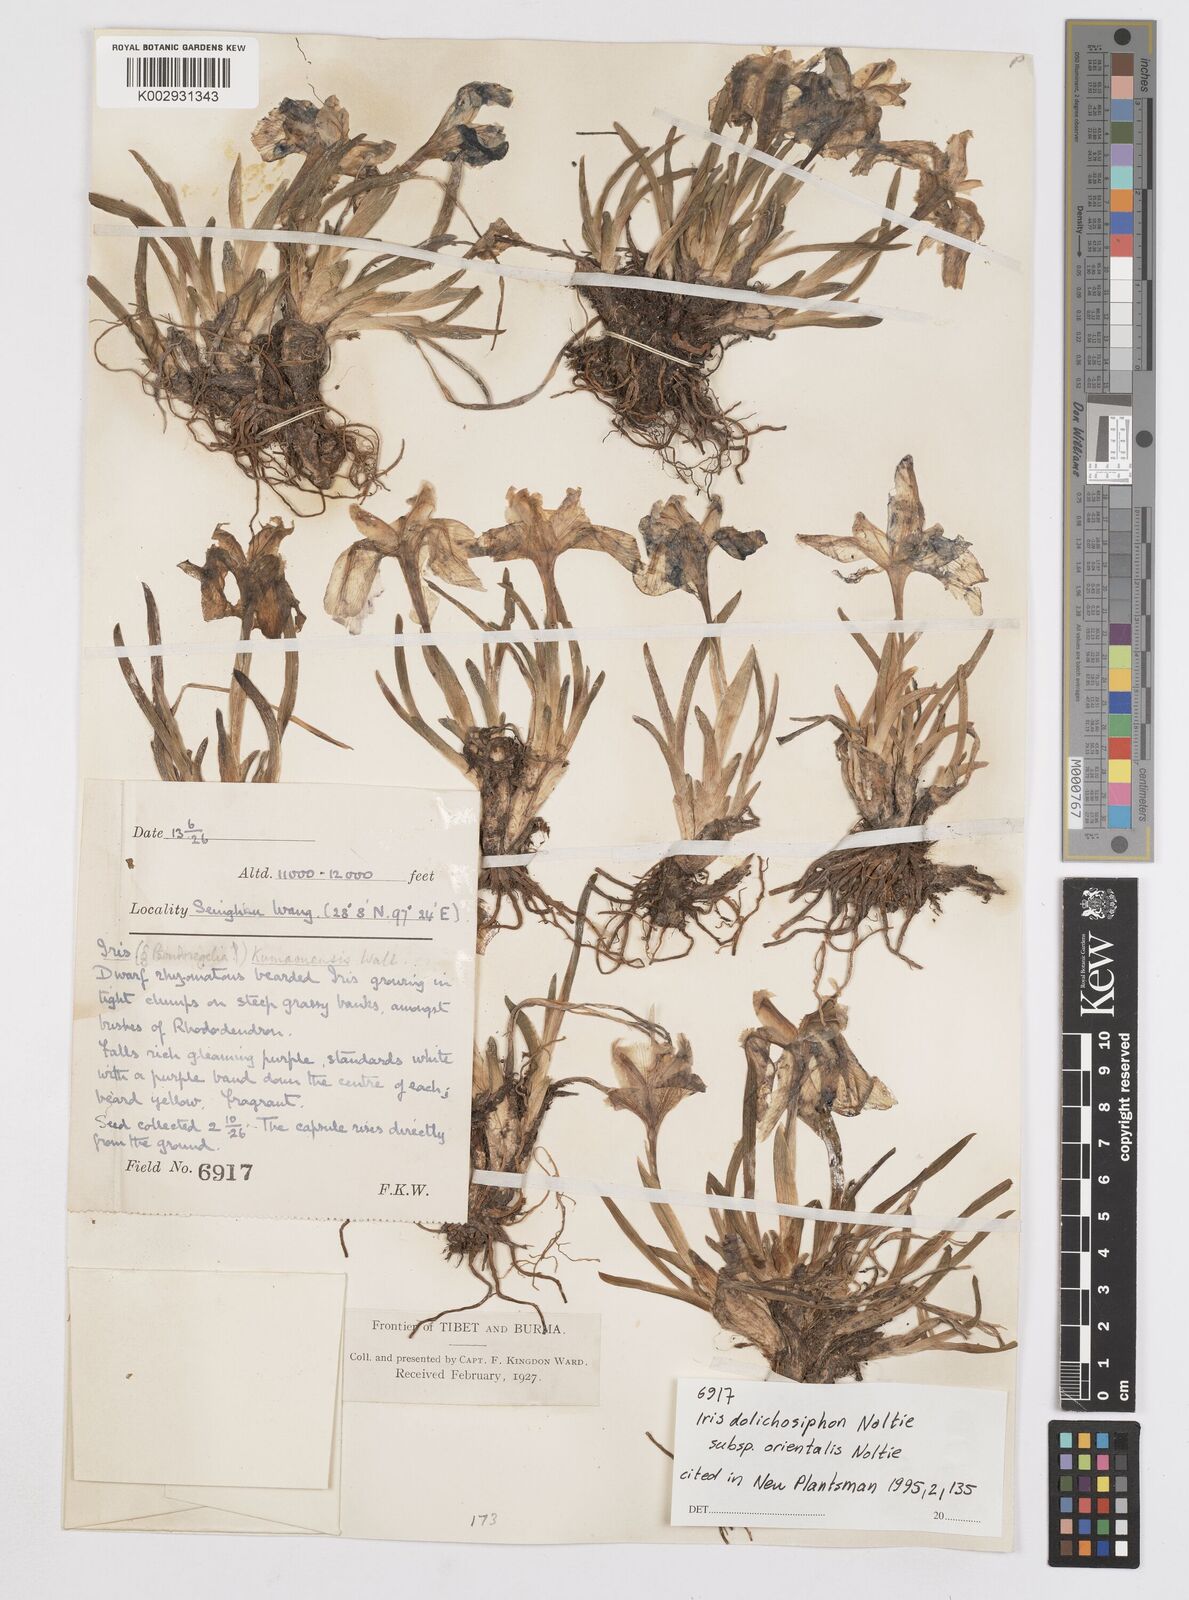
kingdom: Plantae
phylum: Tracheophyta
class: Liliopsida
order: Asparagales
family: Iridaceae
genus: Iris
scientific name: Iris dolichosiphon
